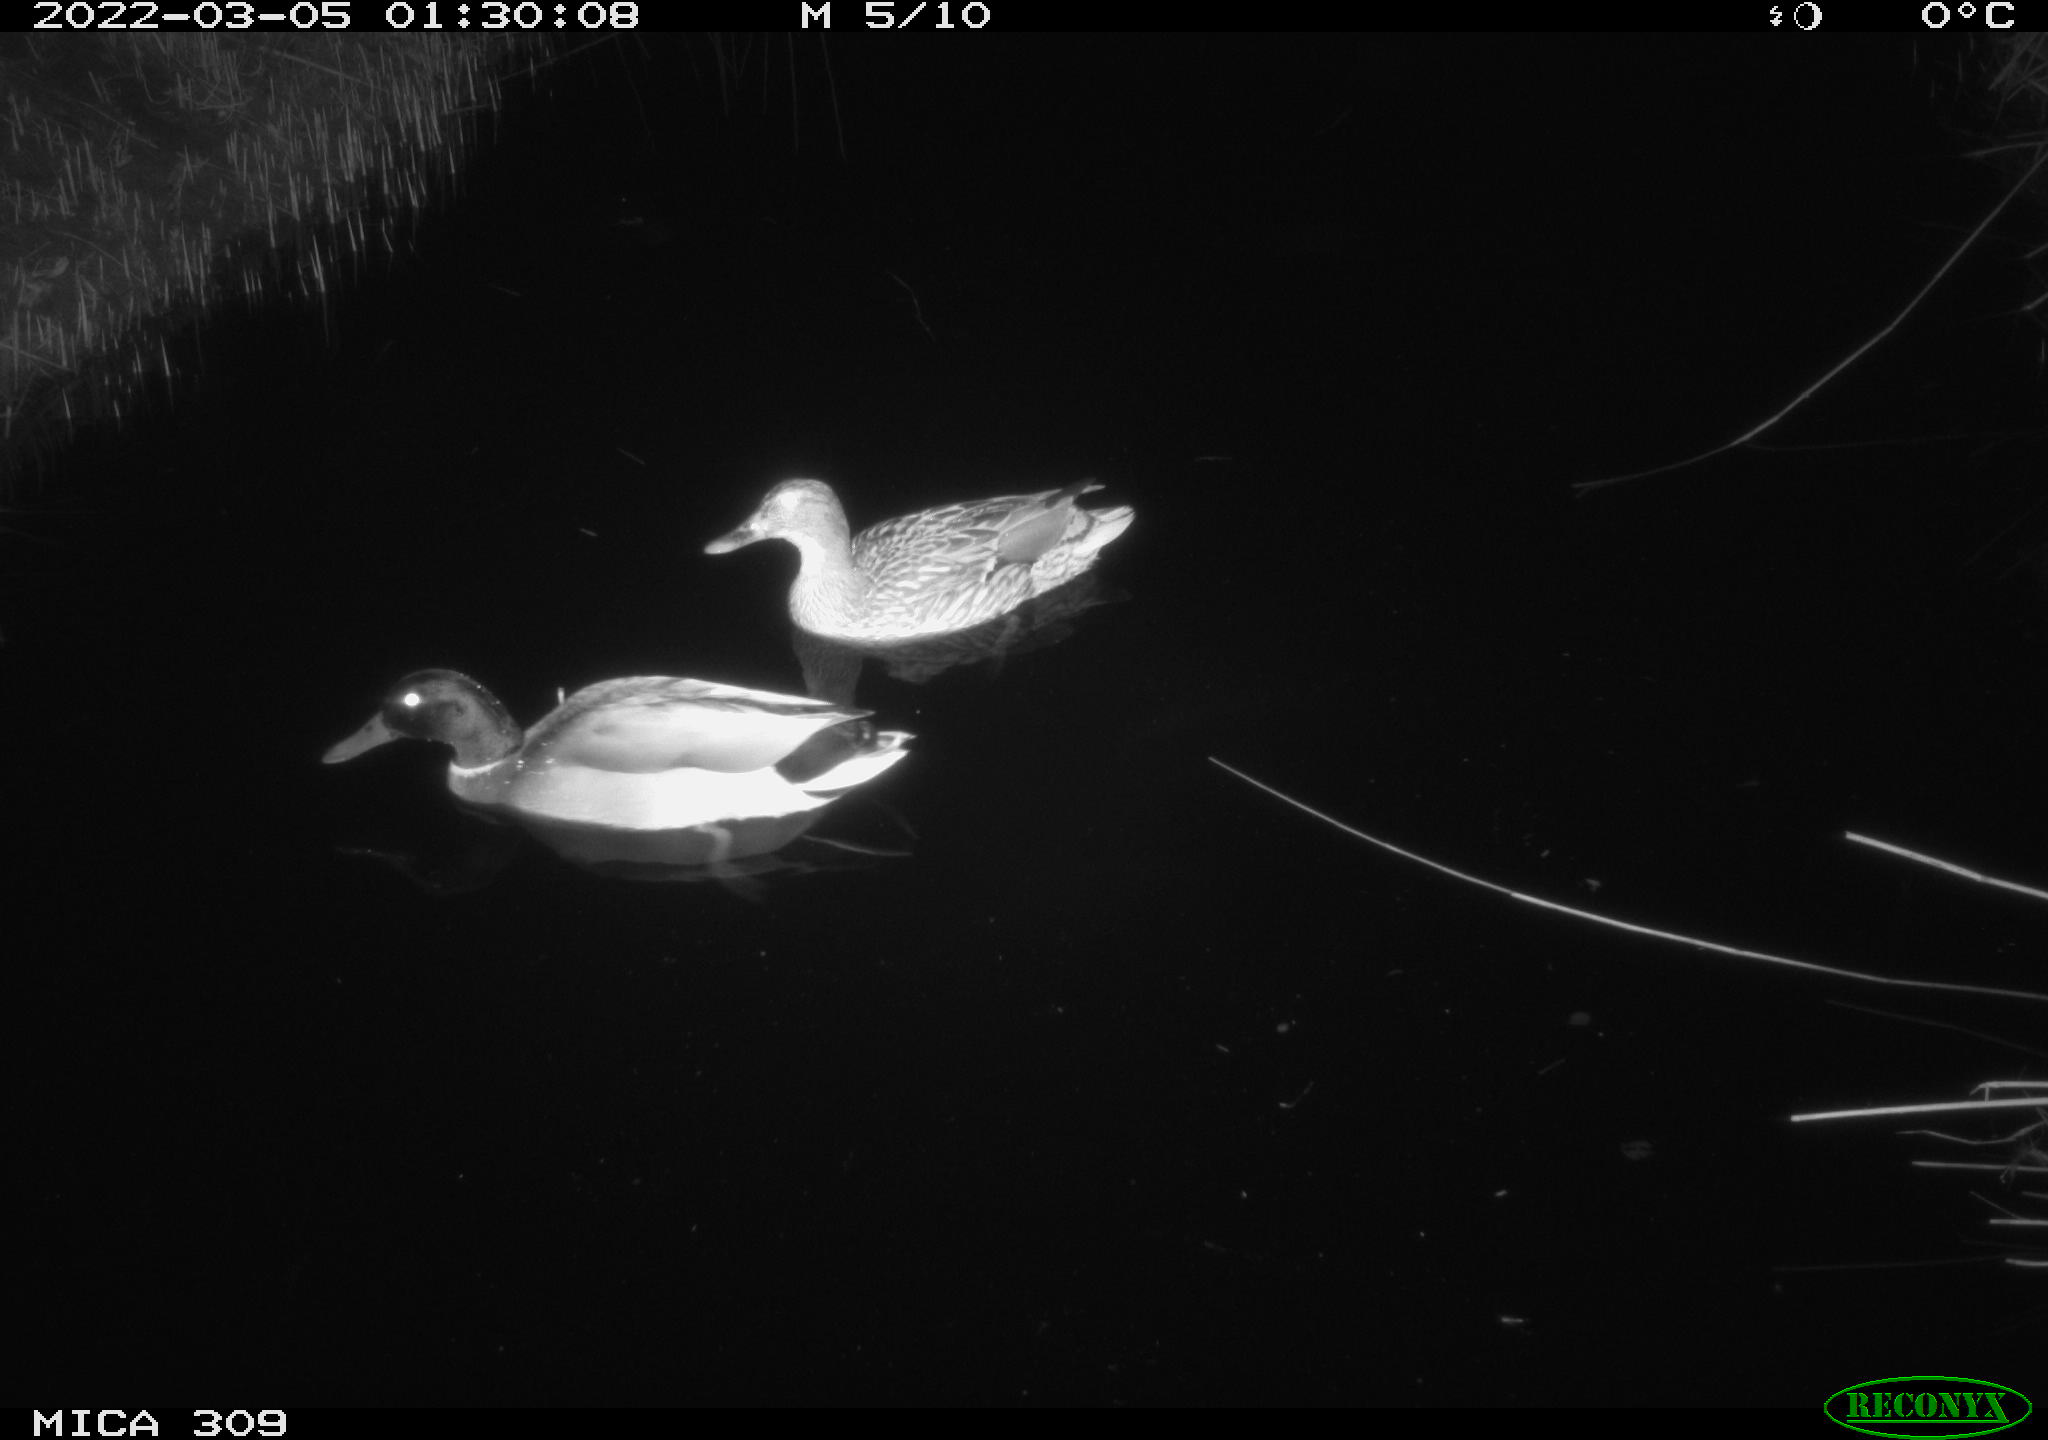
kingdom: Animalia
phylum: Chordata
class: Aves
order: Anseriformes
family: Anatidae
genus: Anas
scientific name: Anas platyrhynchos
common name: Mallard
